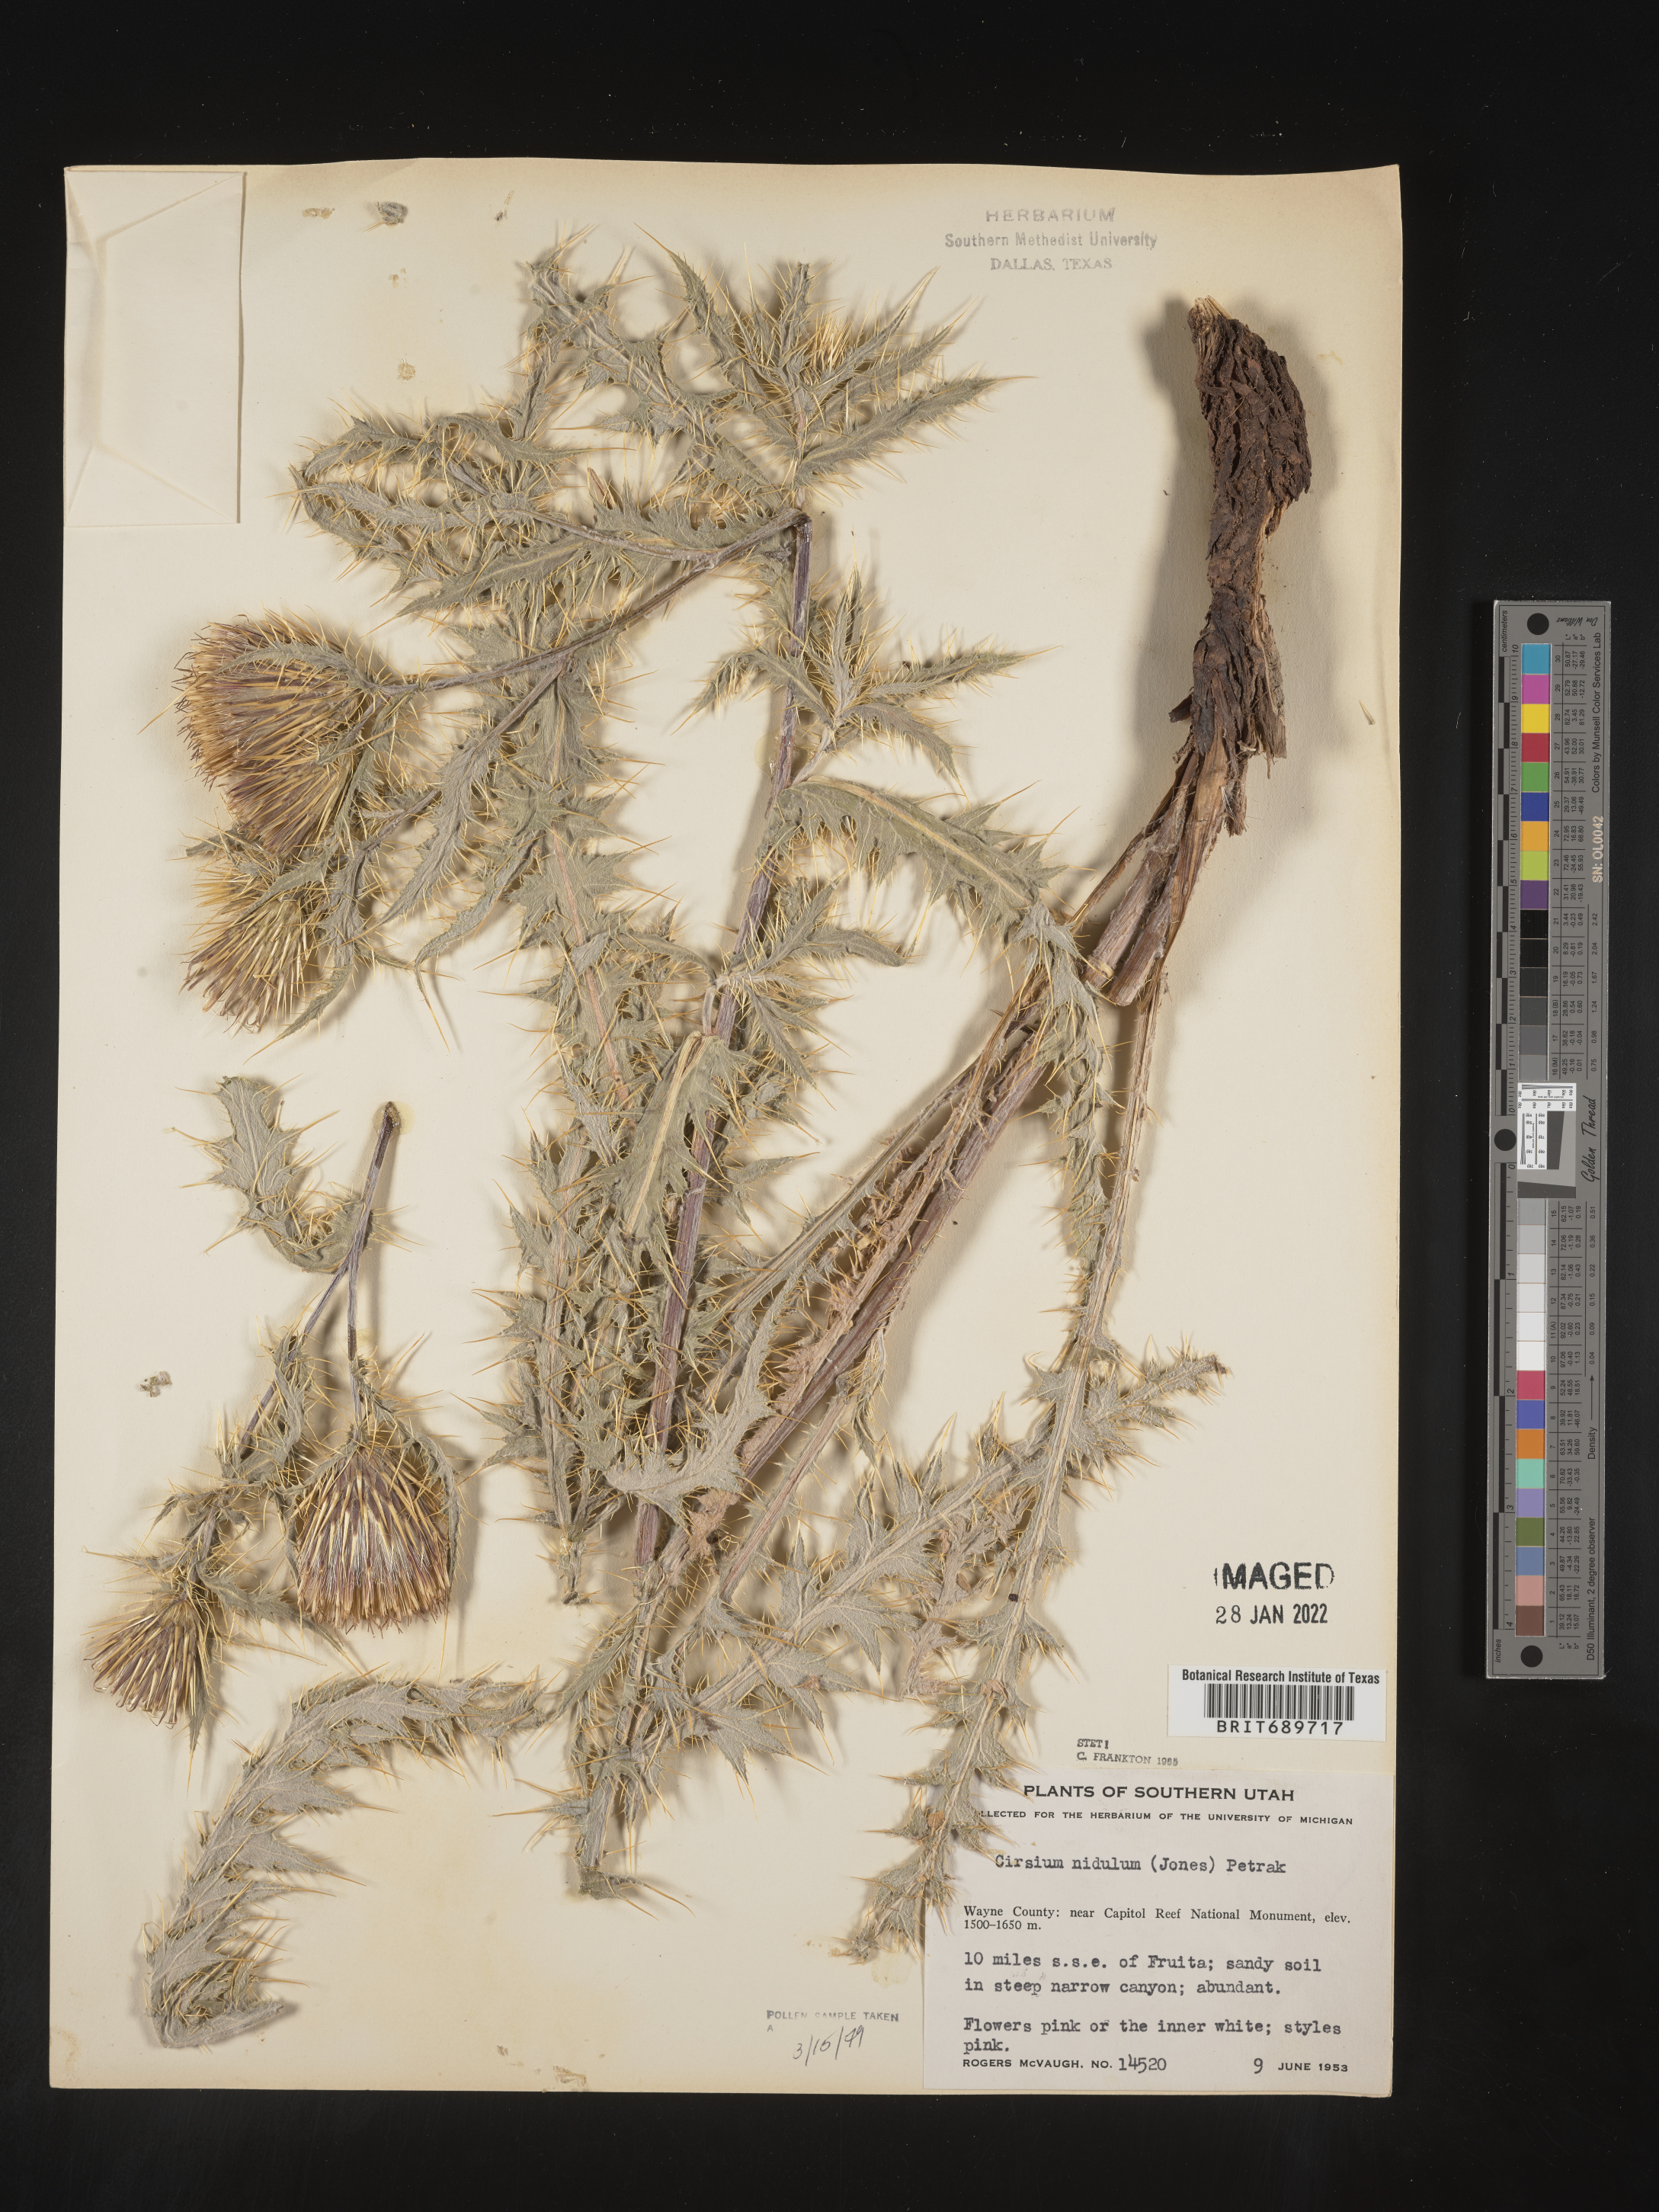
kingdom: Plantae
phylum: Tracheophyta
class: Magnoliopsida
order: Asterales
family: Asteraceae
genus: Cirsium
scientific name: Cirsium
